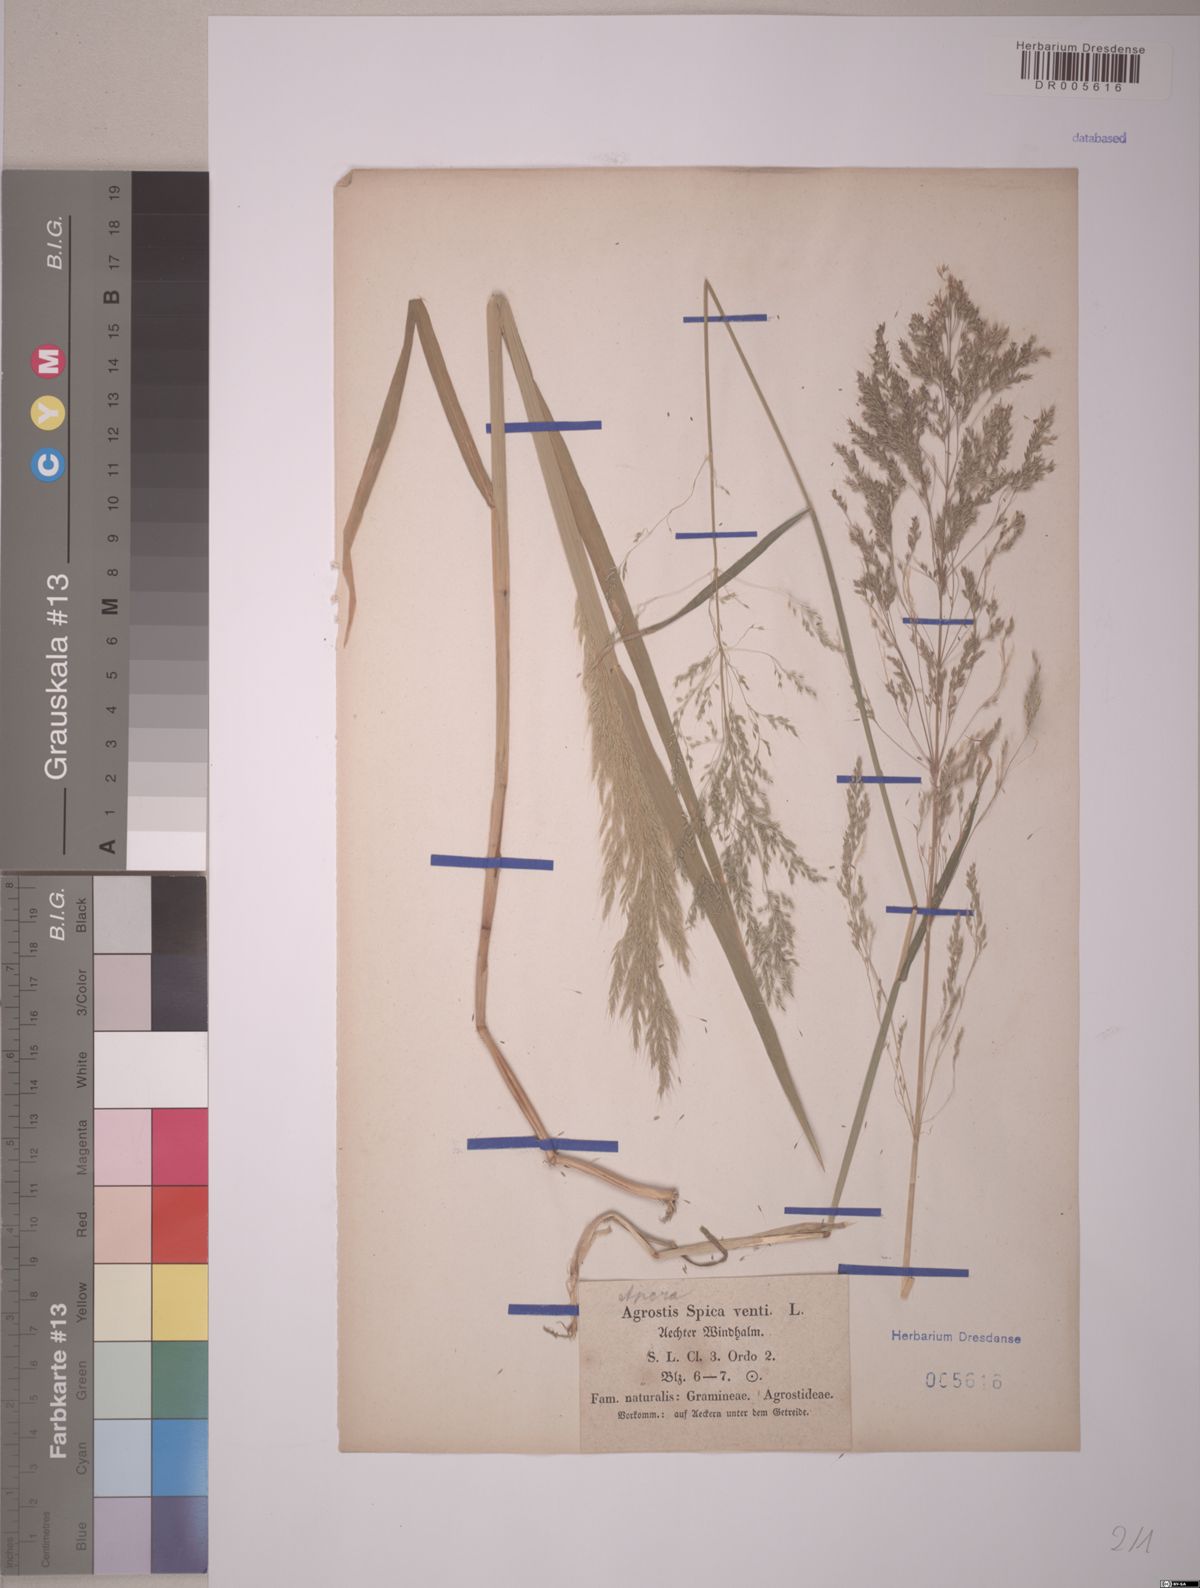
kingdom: Plantae
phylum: Tracheophyta
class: Liliopsida
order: Poales
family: Poaceae
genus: Apera
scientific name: Apera spica-venti
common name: Loose silky-bent
